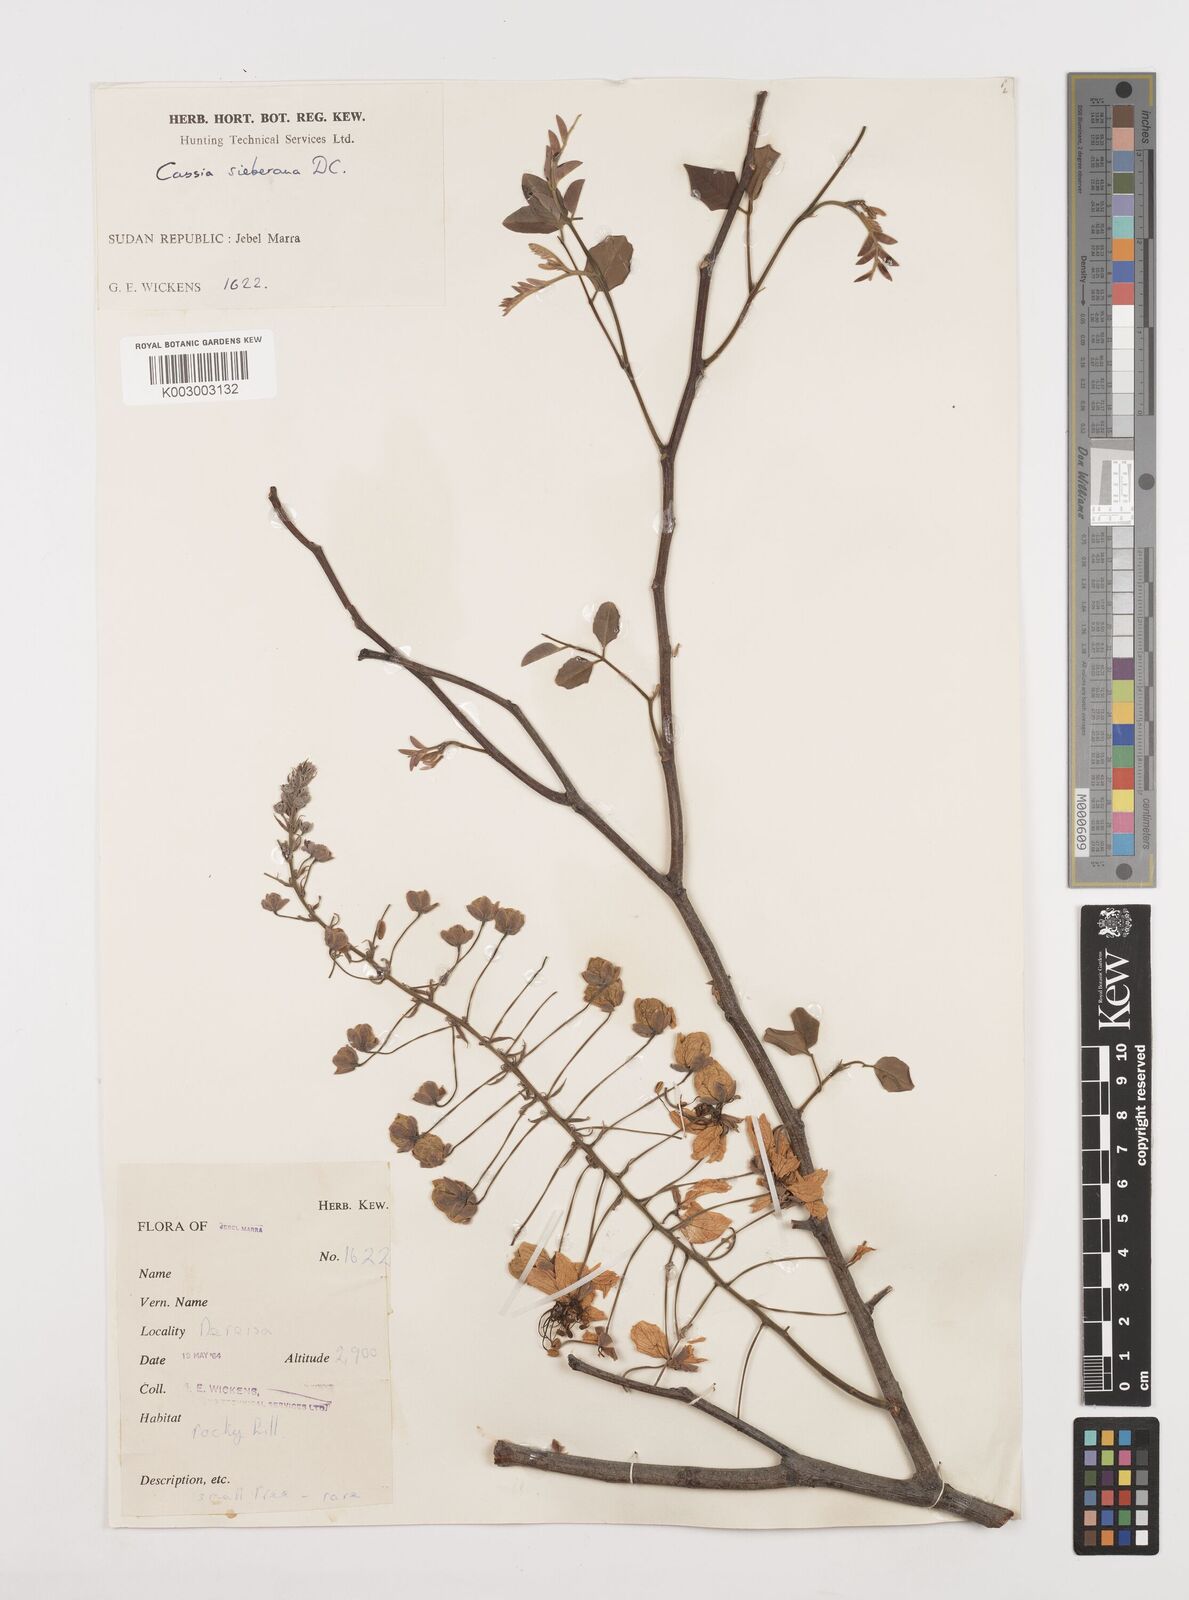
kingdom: Plantae
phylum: Tracheophyta
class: Magnoliopsida
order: Fabales
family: Fabaceae
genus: Cassia
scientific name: Cassia sieberiana
